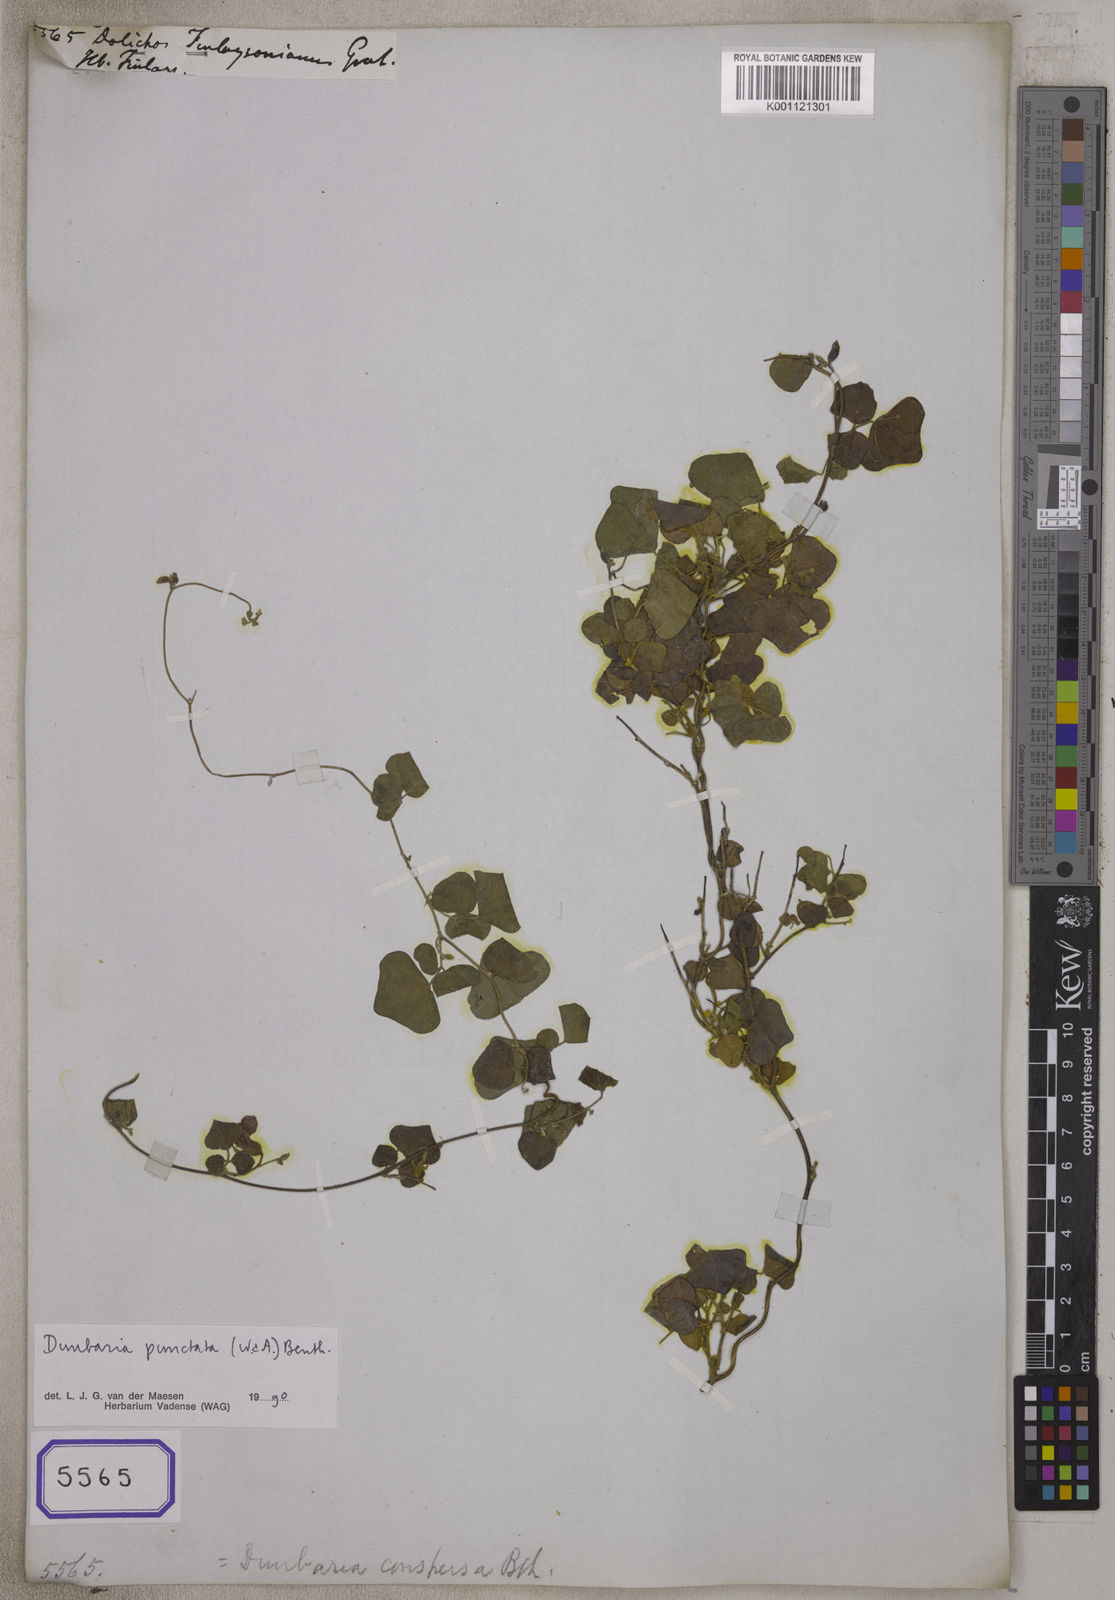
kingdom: Plantae
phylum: Tracheophyta
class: Magnoliopsida
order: Fabales
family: Fabaceae
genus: Dunbaria
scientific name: Dunbaria punctata
